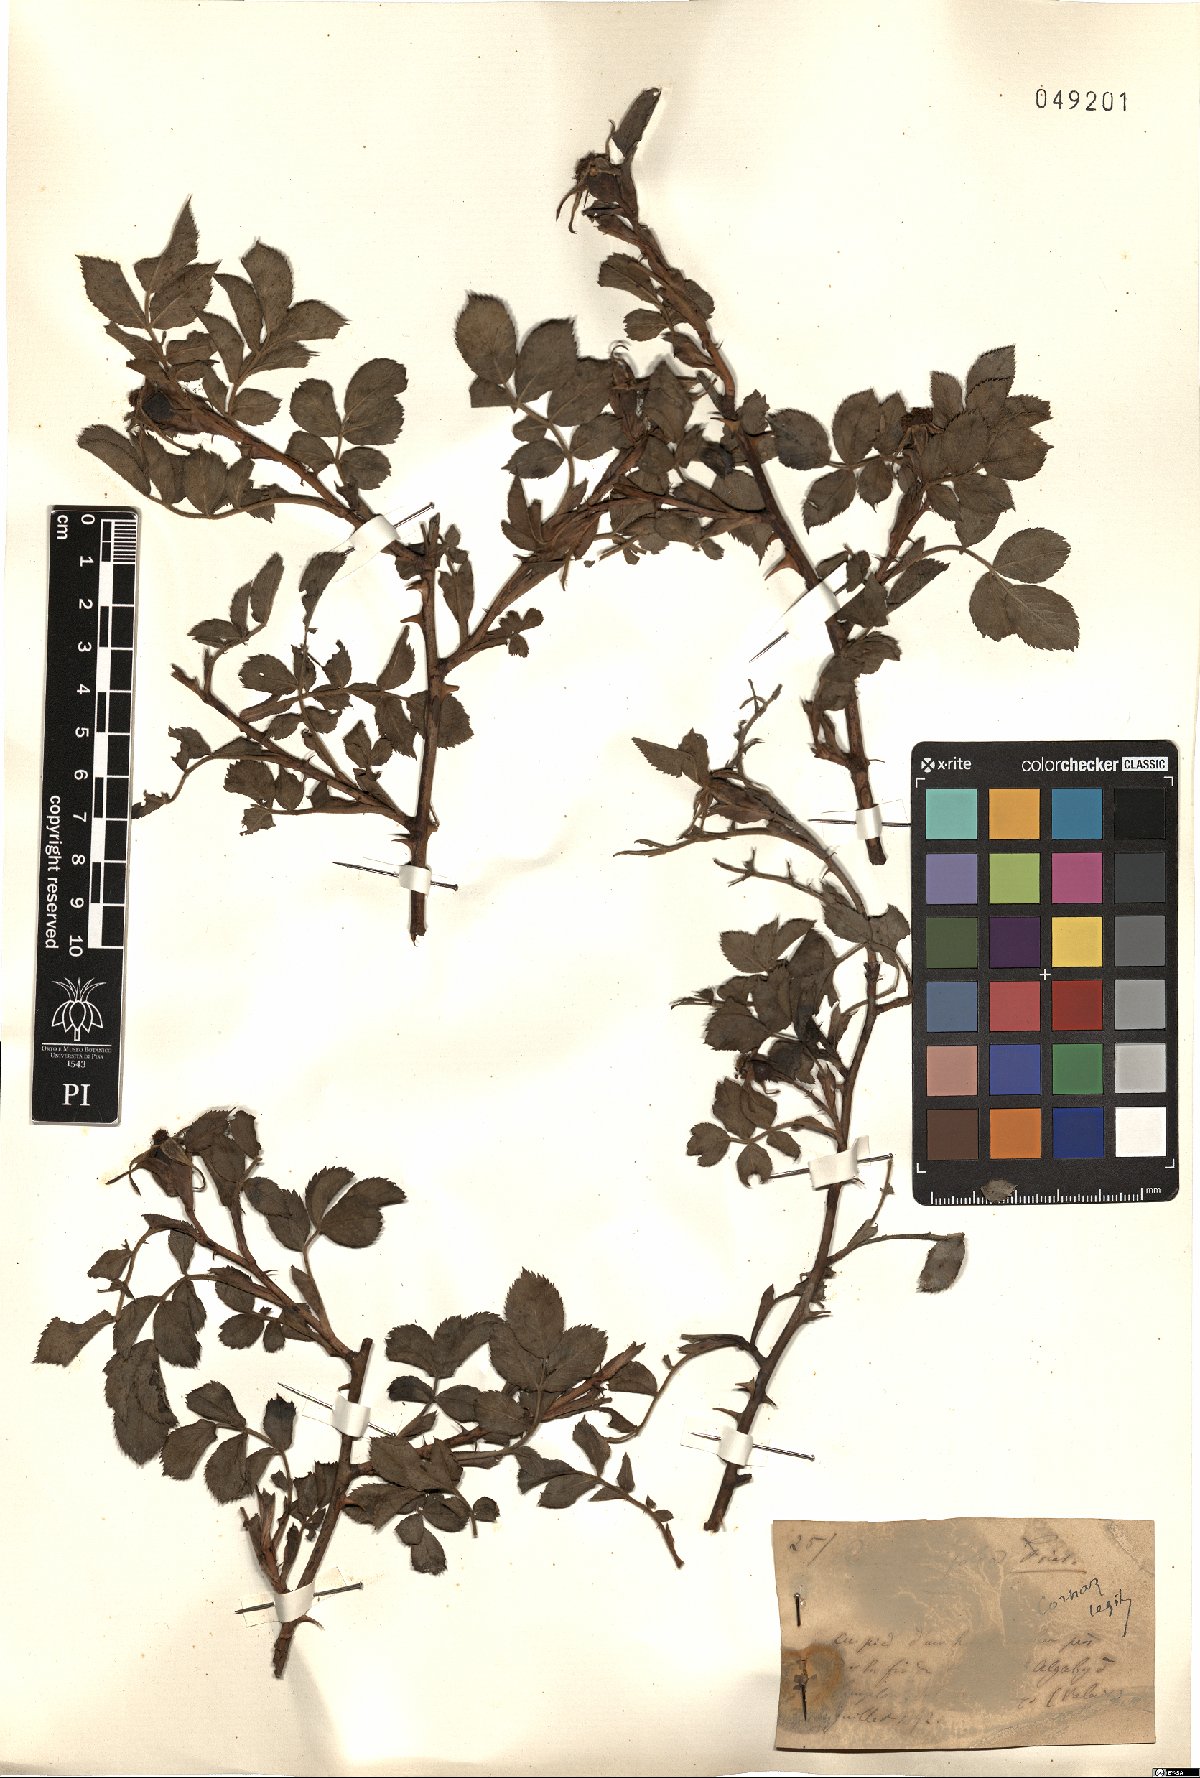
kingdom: Plantae
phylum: Tracheophyta
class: Magnoliopsida
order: Rosales
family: Rosaceae
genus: Rosa
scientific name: Rosa caesia
